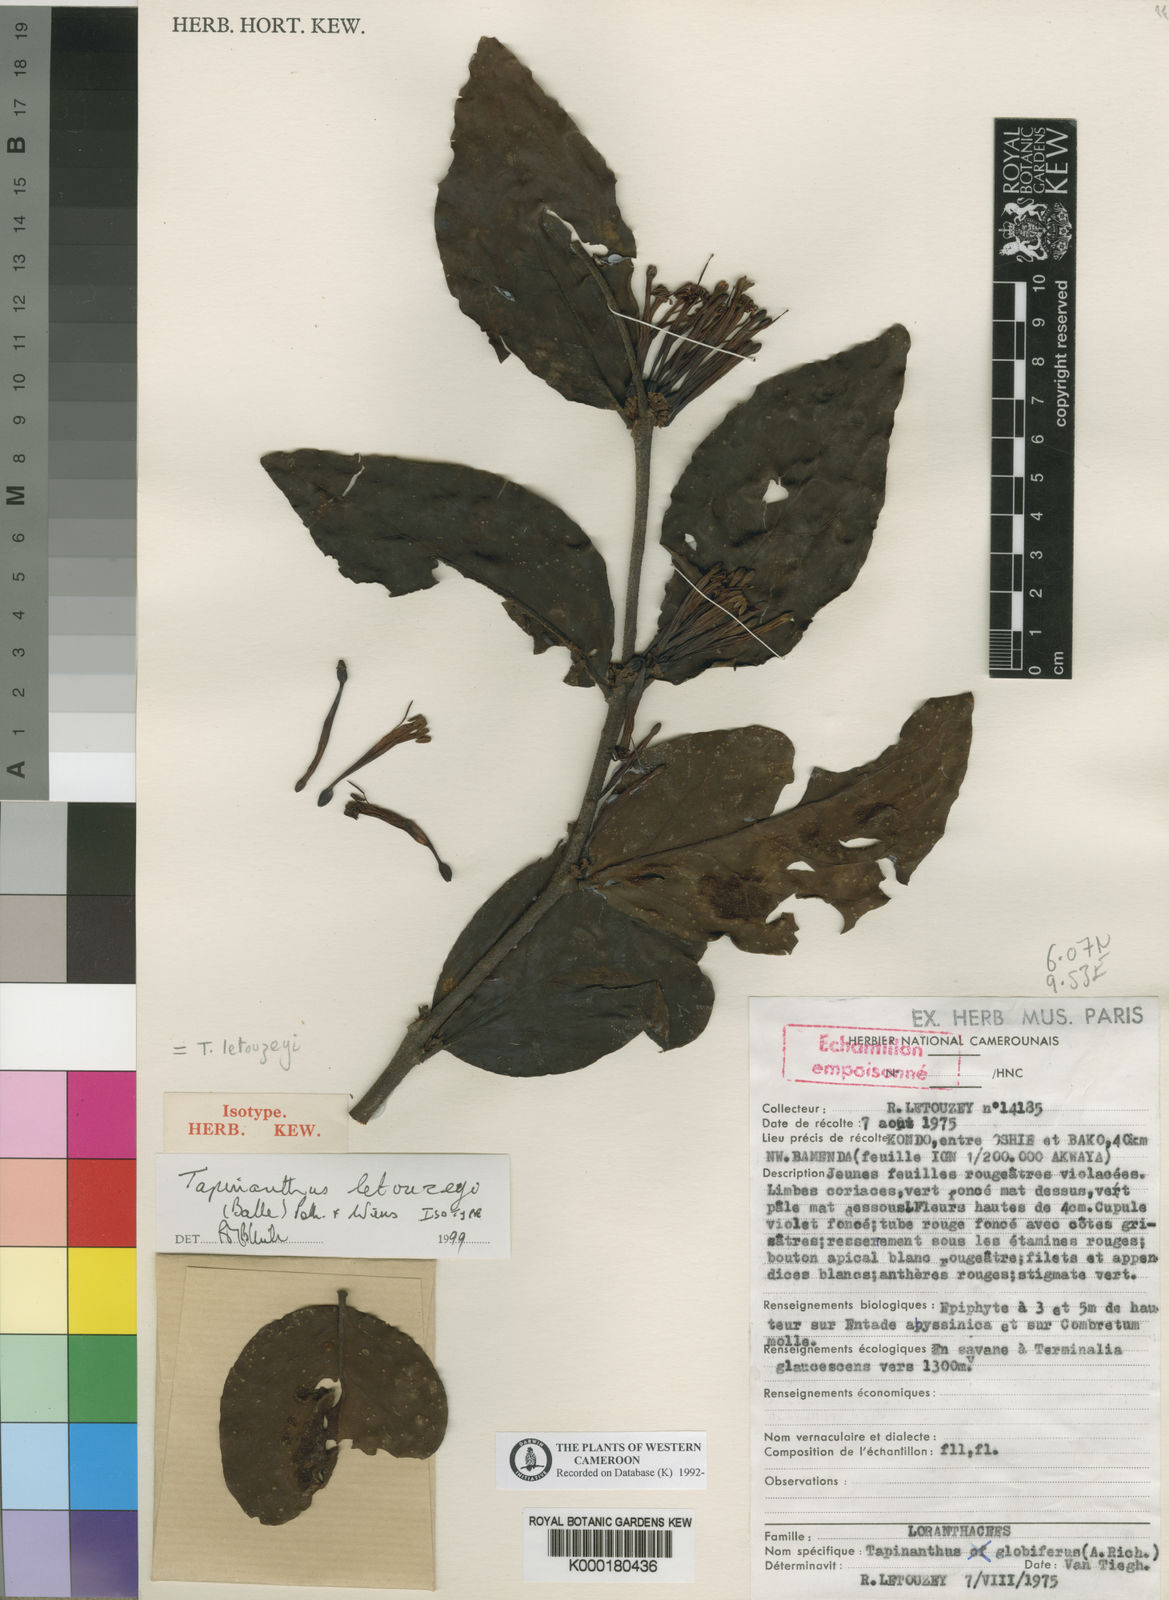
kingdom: Plantae
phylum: Tracheophyta
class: Magnoliopsida
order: Santalales
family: Loranthaceae
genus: Tapinanthus
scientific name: Tapinanthus letouzeyi
